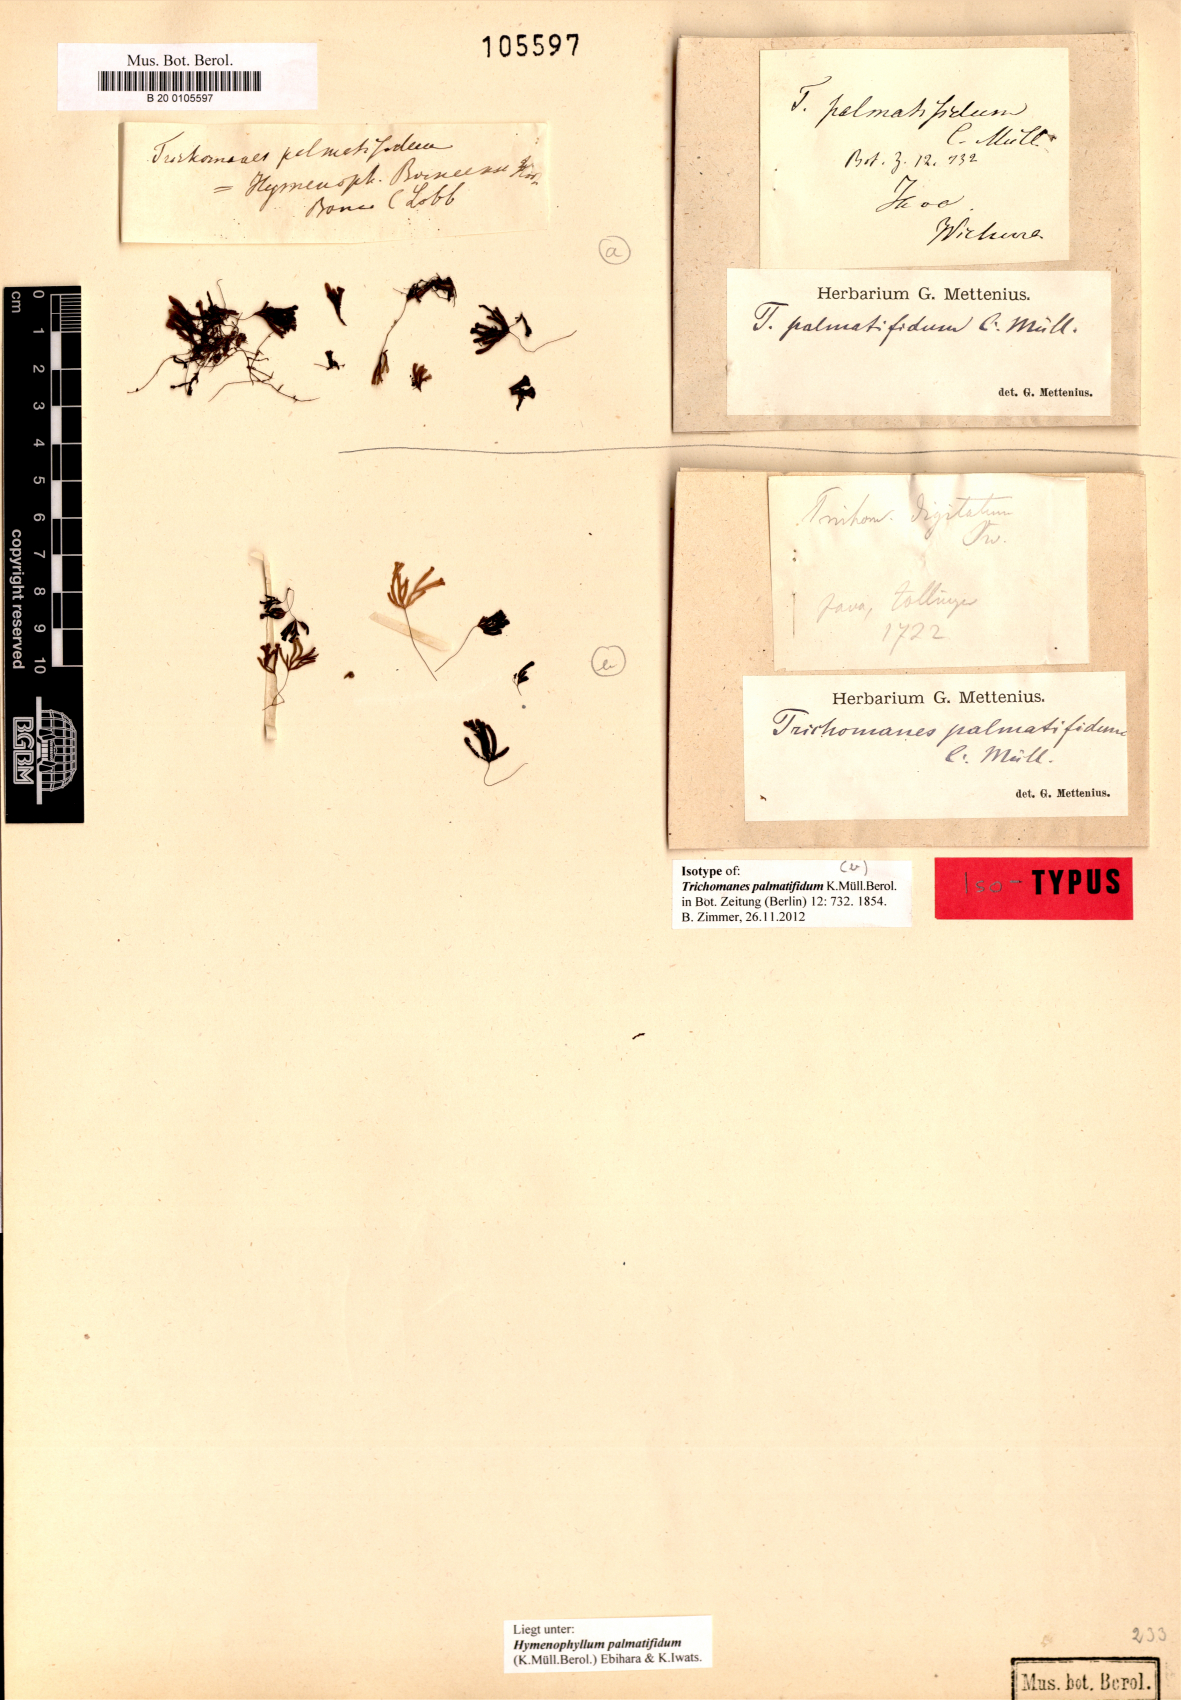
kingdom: Plantae
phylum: Tracheophyta
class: Polypodiopsida
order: Hymenophyllales
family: Hymenophyllaceae
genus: Hymenophyllum
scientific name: Hymenophyllum palmatifidum
